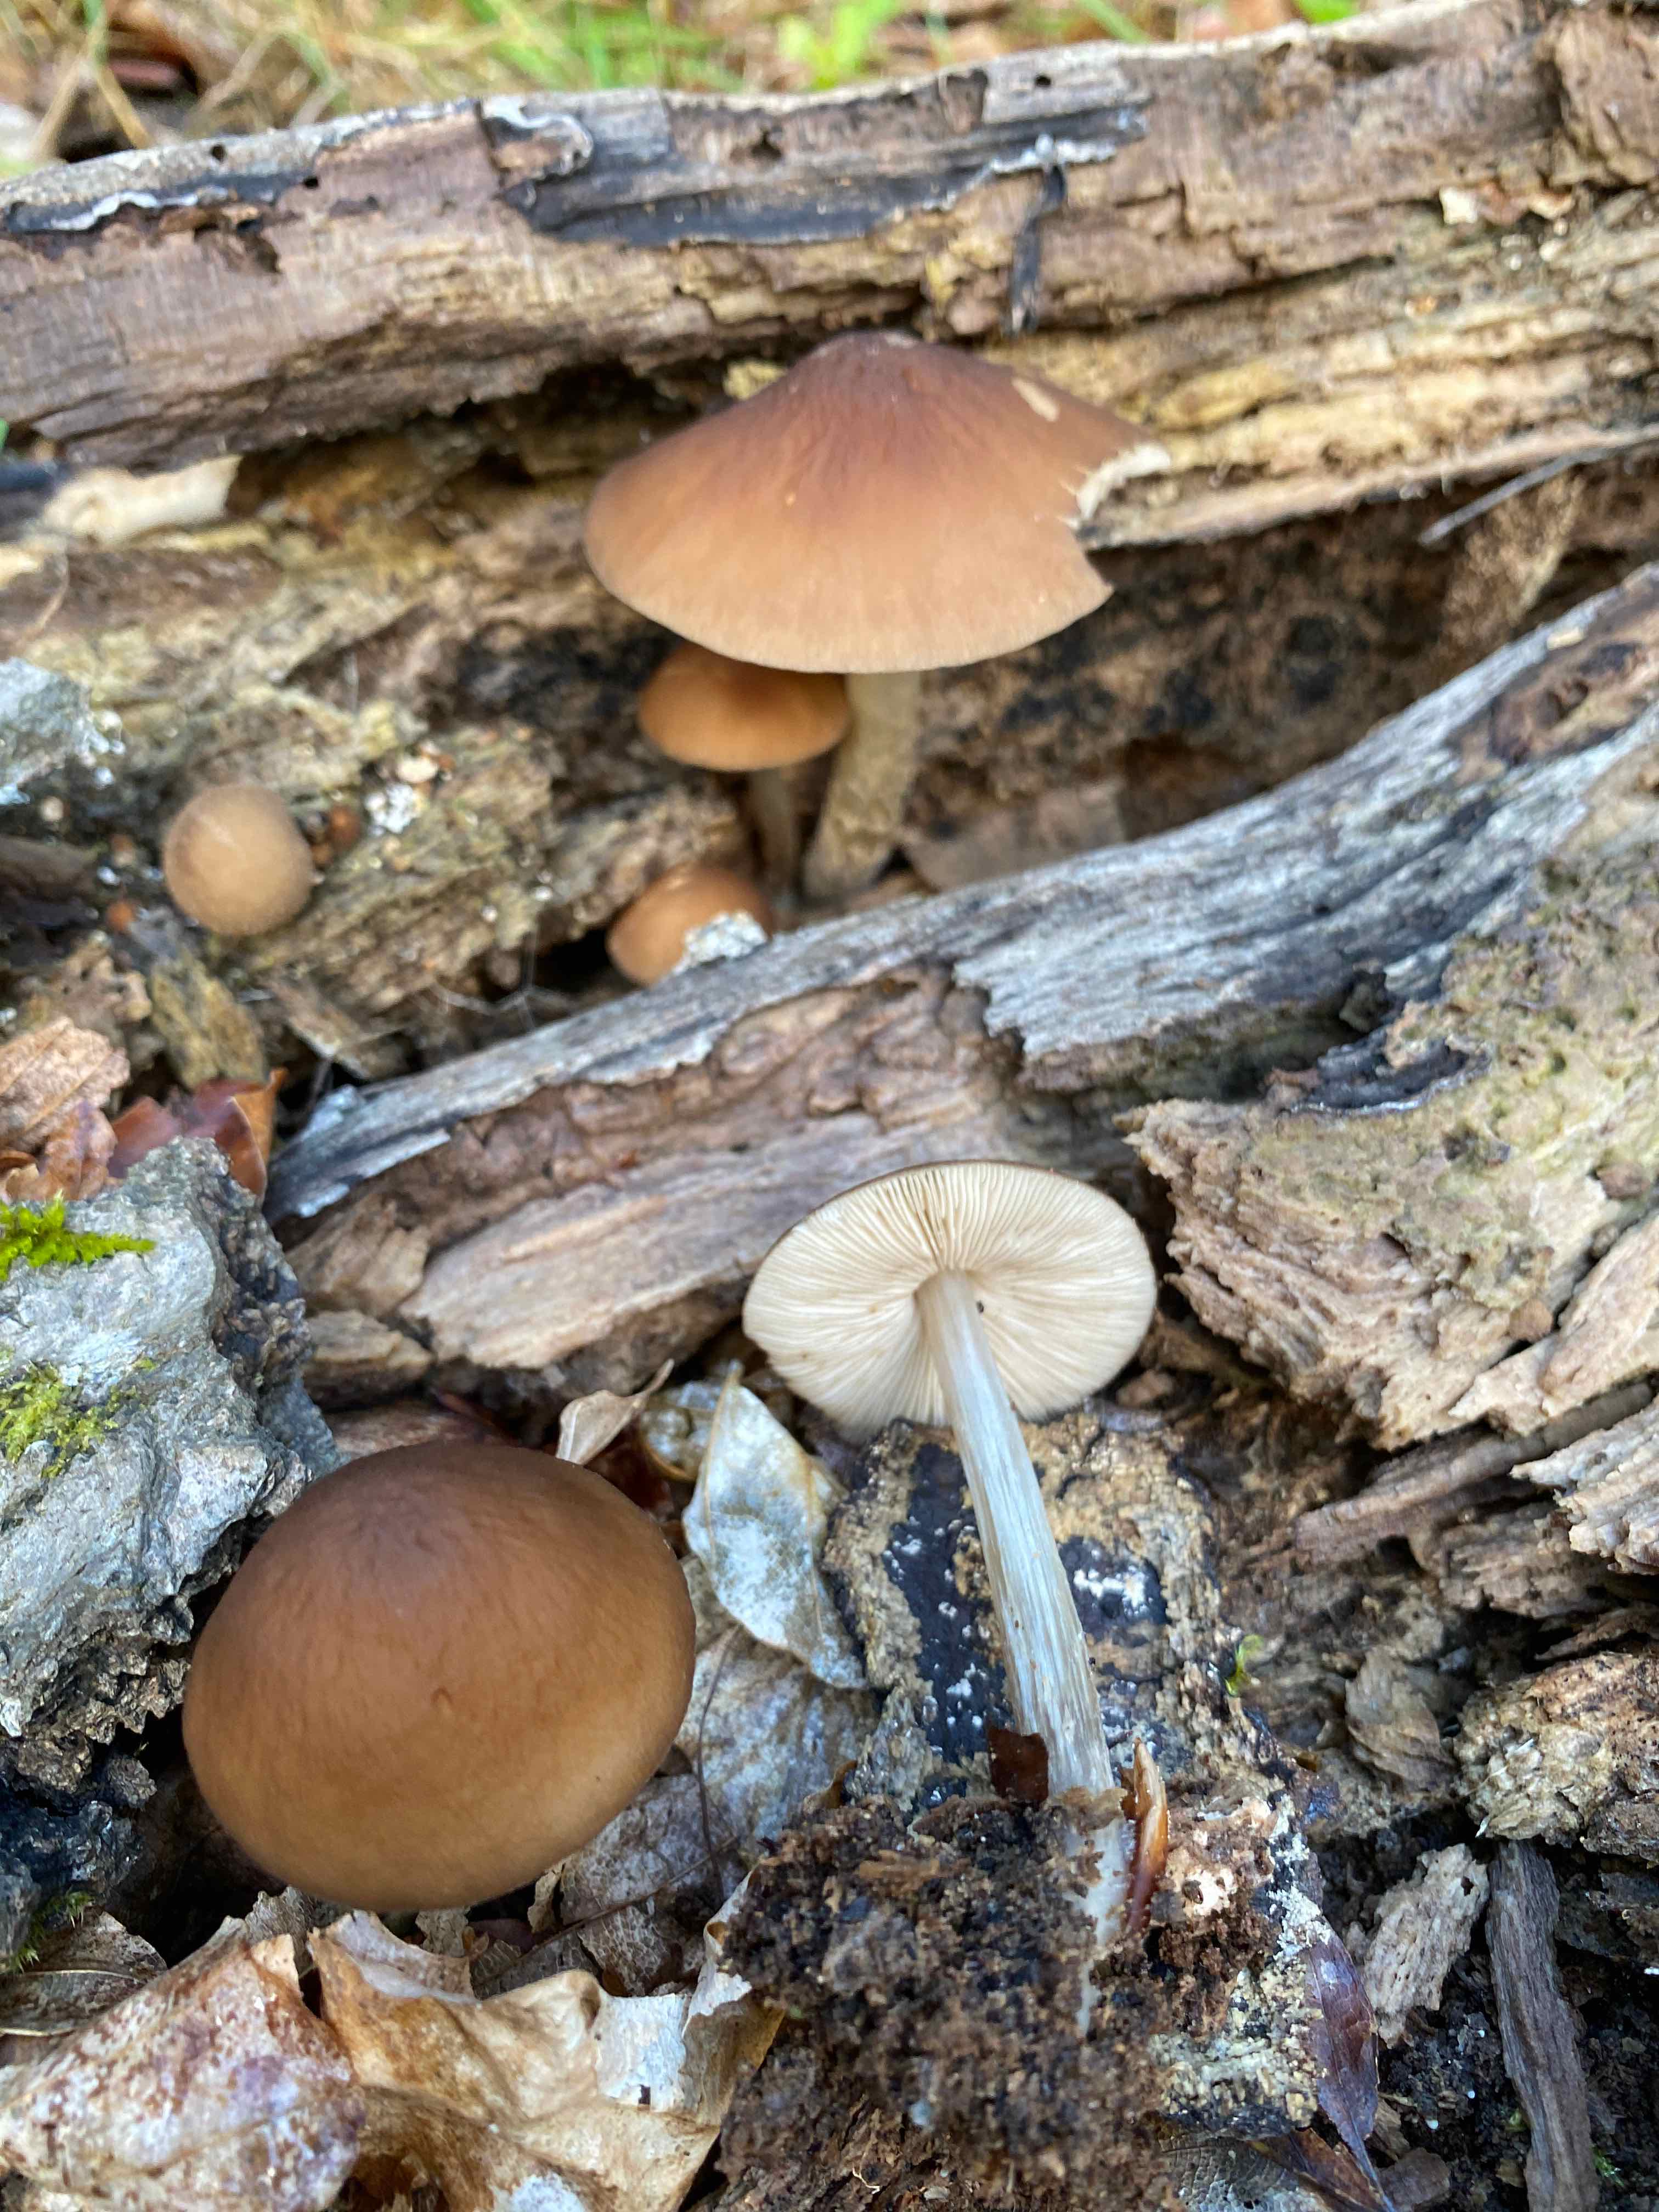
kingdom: Fungi
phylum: Basidiomycota
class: Agaricomycetes
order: Agaricales
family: Pluteaceae
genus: Pluteus
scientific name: Pluteus phlebophorus
